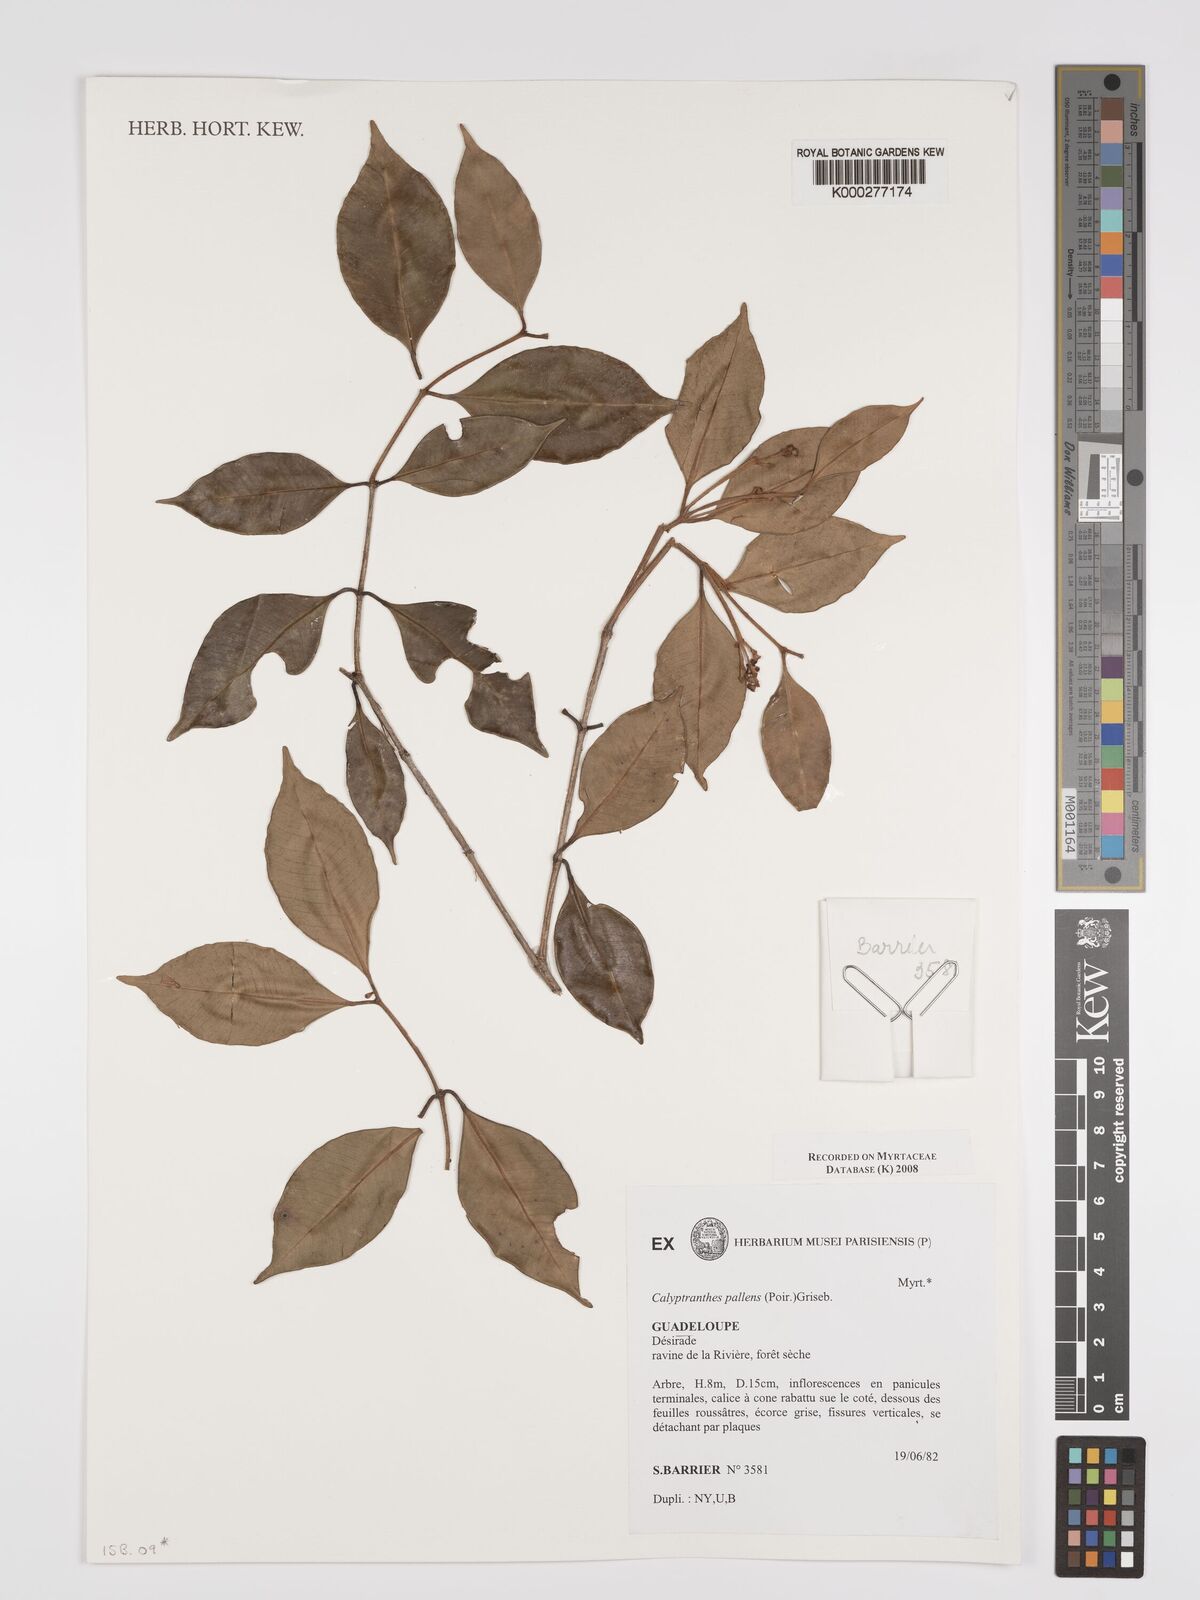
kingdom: Plantae
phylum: Tracheophyta
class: Magnoliopsida
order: Myrtales
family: Myrtaceae
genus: Myrcia
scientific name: Myrcia neopallens
